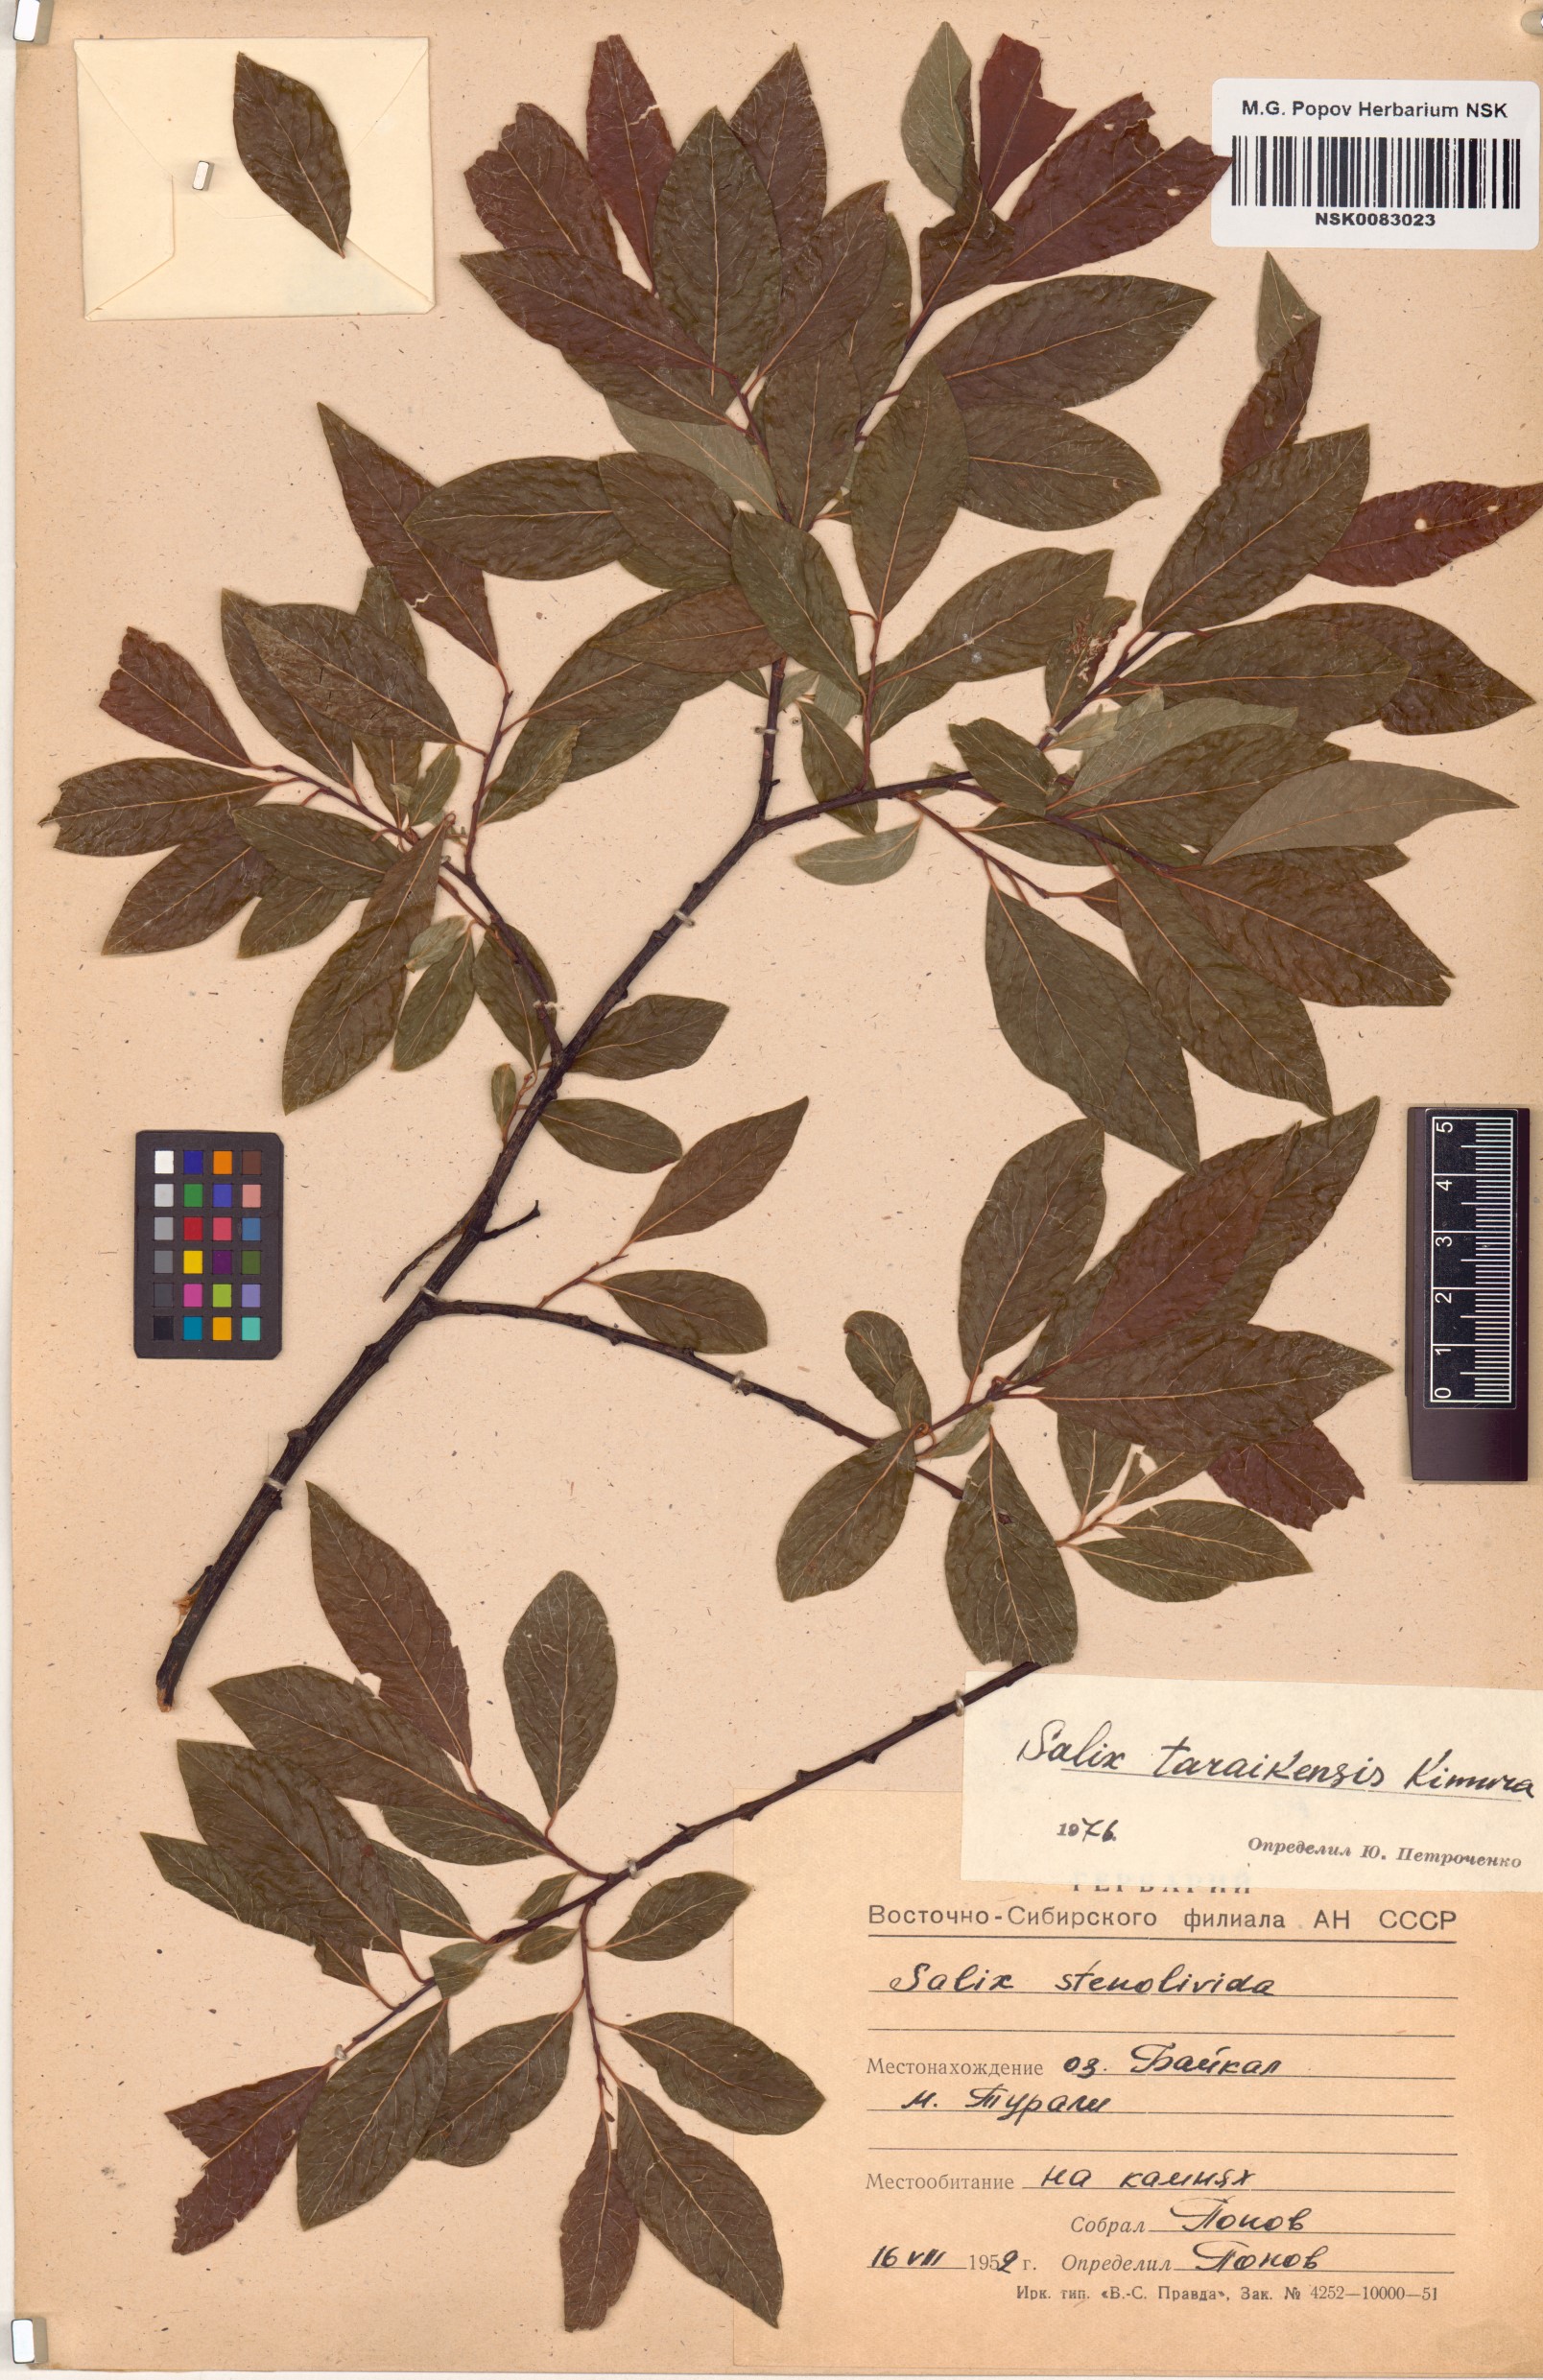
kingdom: Plantae
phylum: Tracheophyta
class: Magnoliopsida
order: Malpighiales
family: Salicaceae
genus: Salix
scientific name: Salix taraikensis
